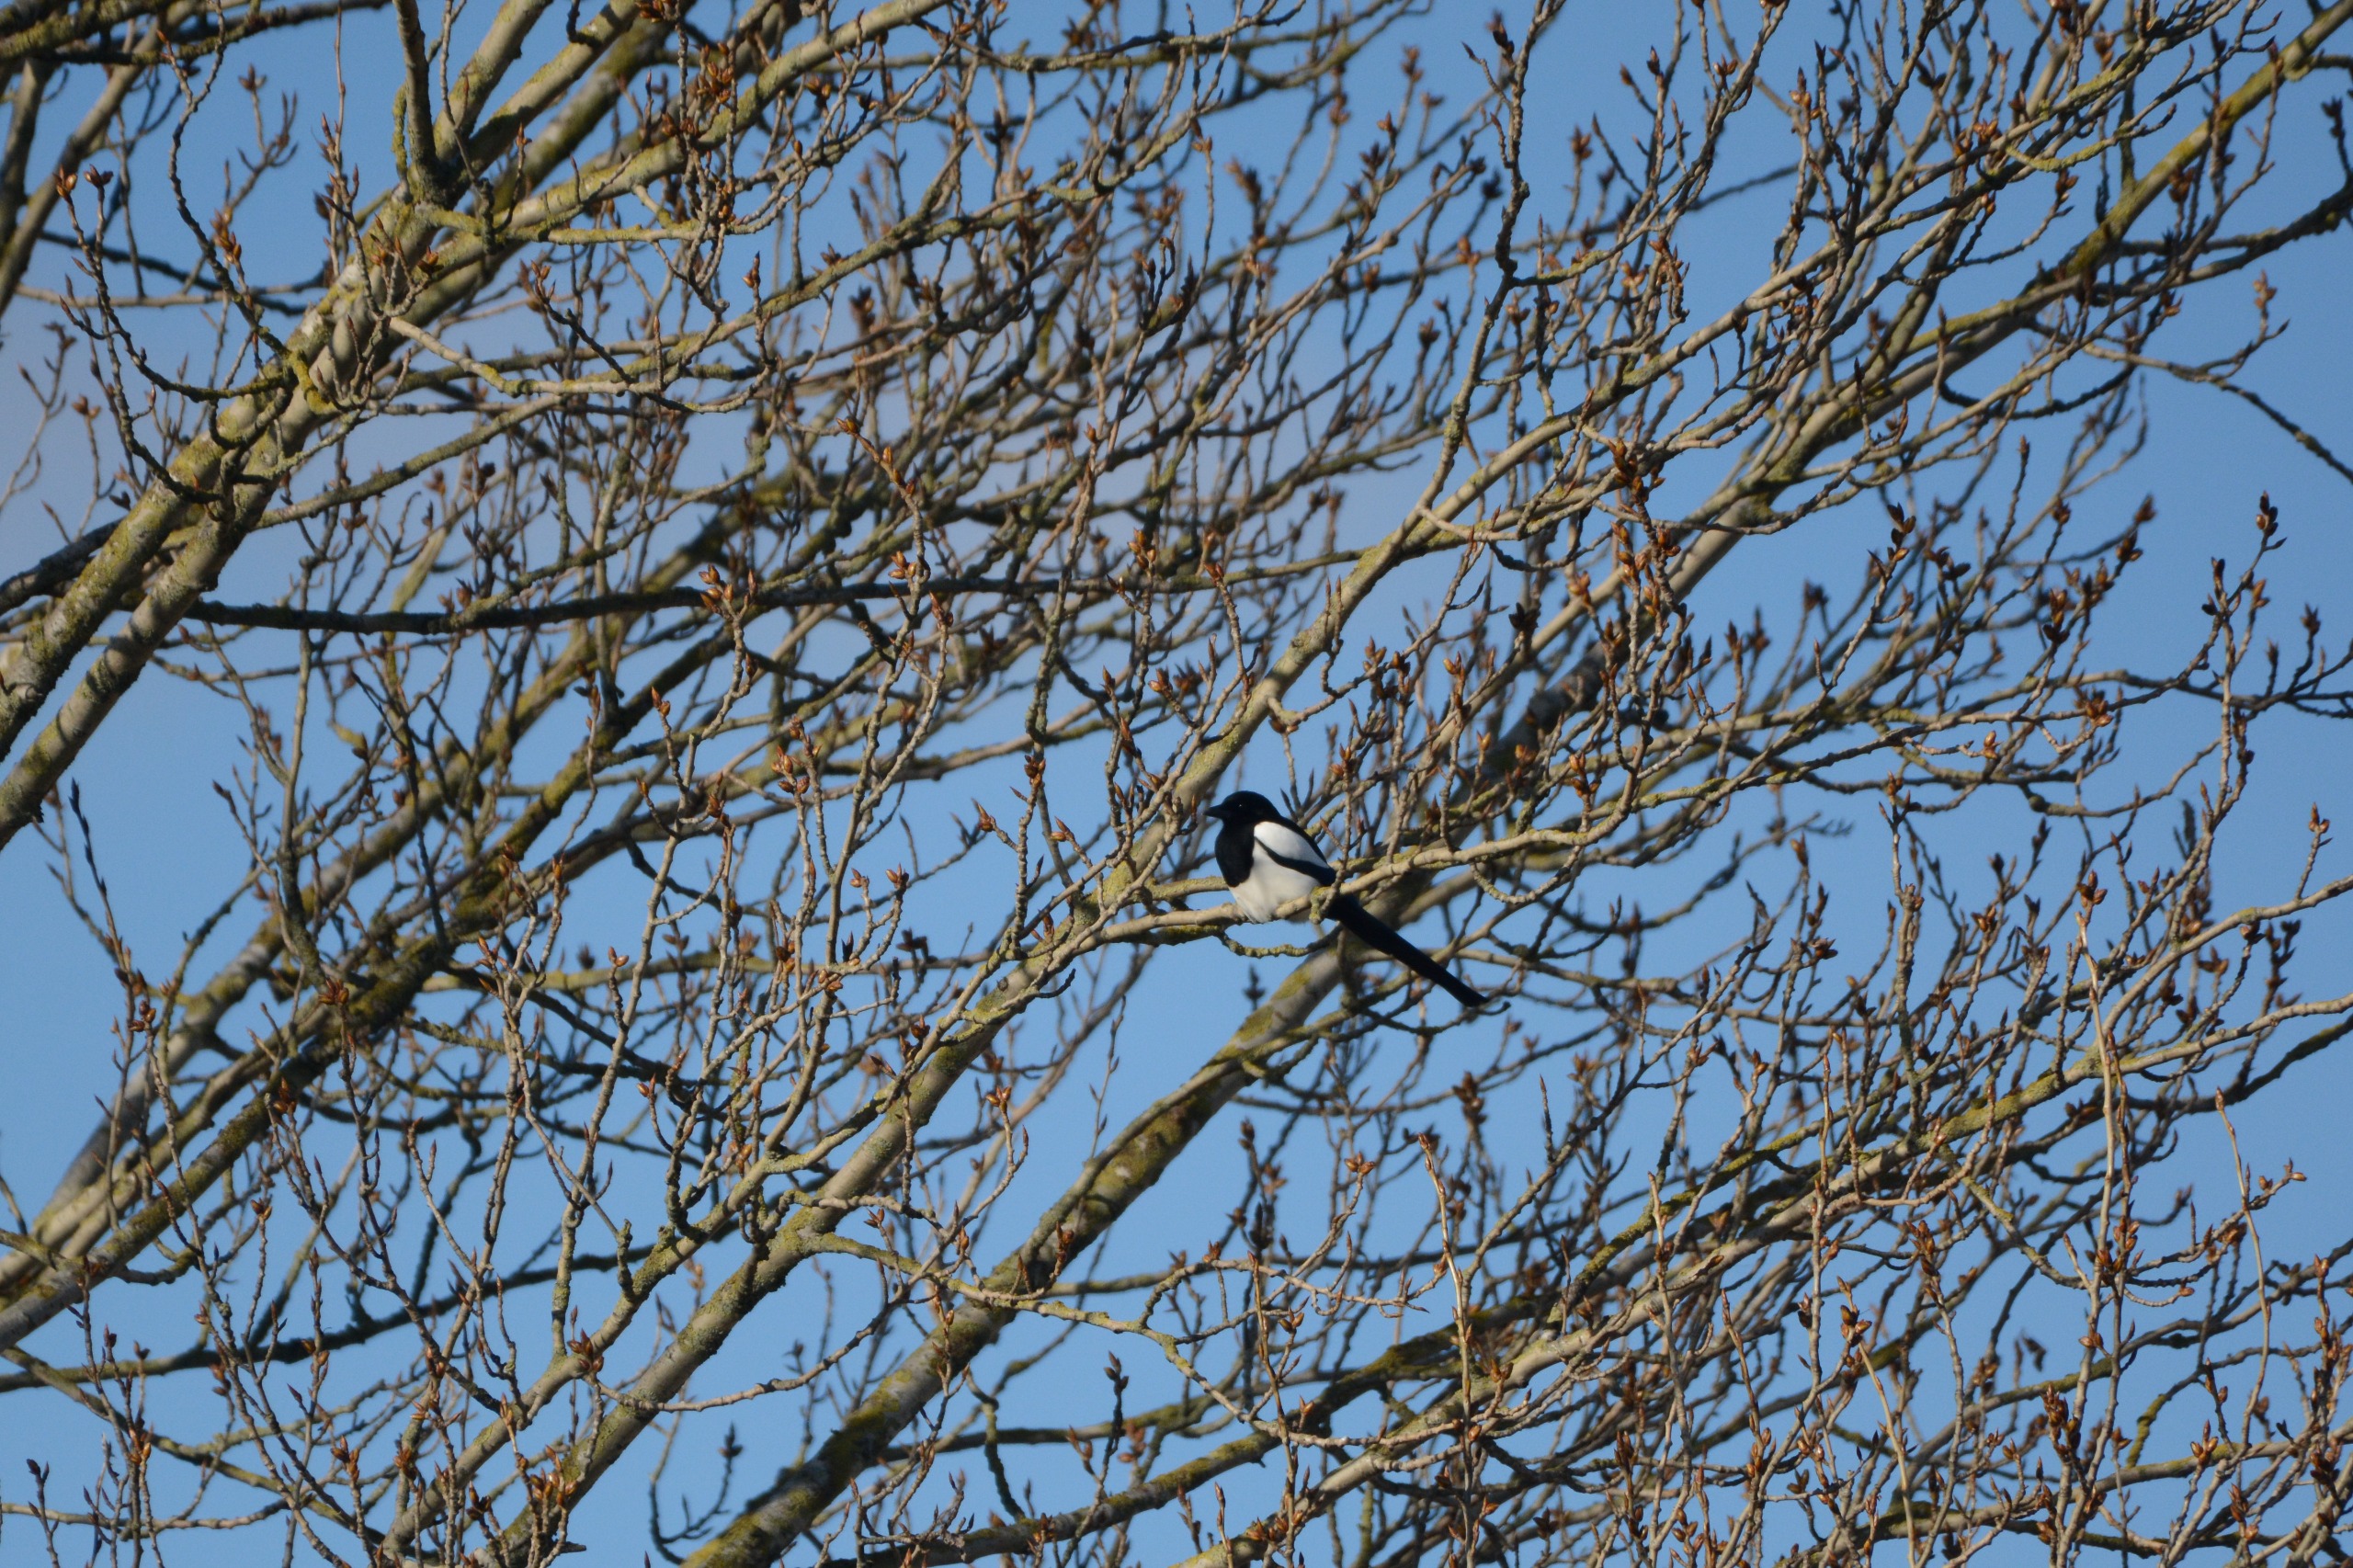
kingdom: Animalia
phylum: Chordata
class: Aves
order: Passeriformes
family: Corvidae
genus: Pica
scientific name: Pica pica
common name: Husskade
